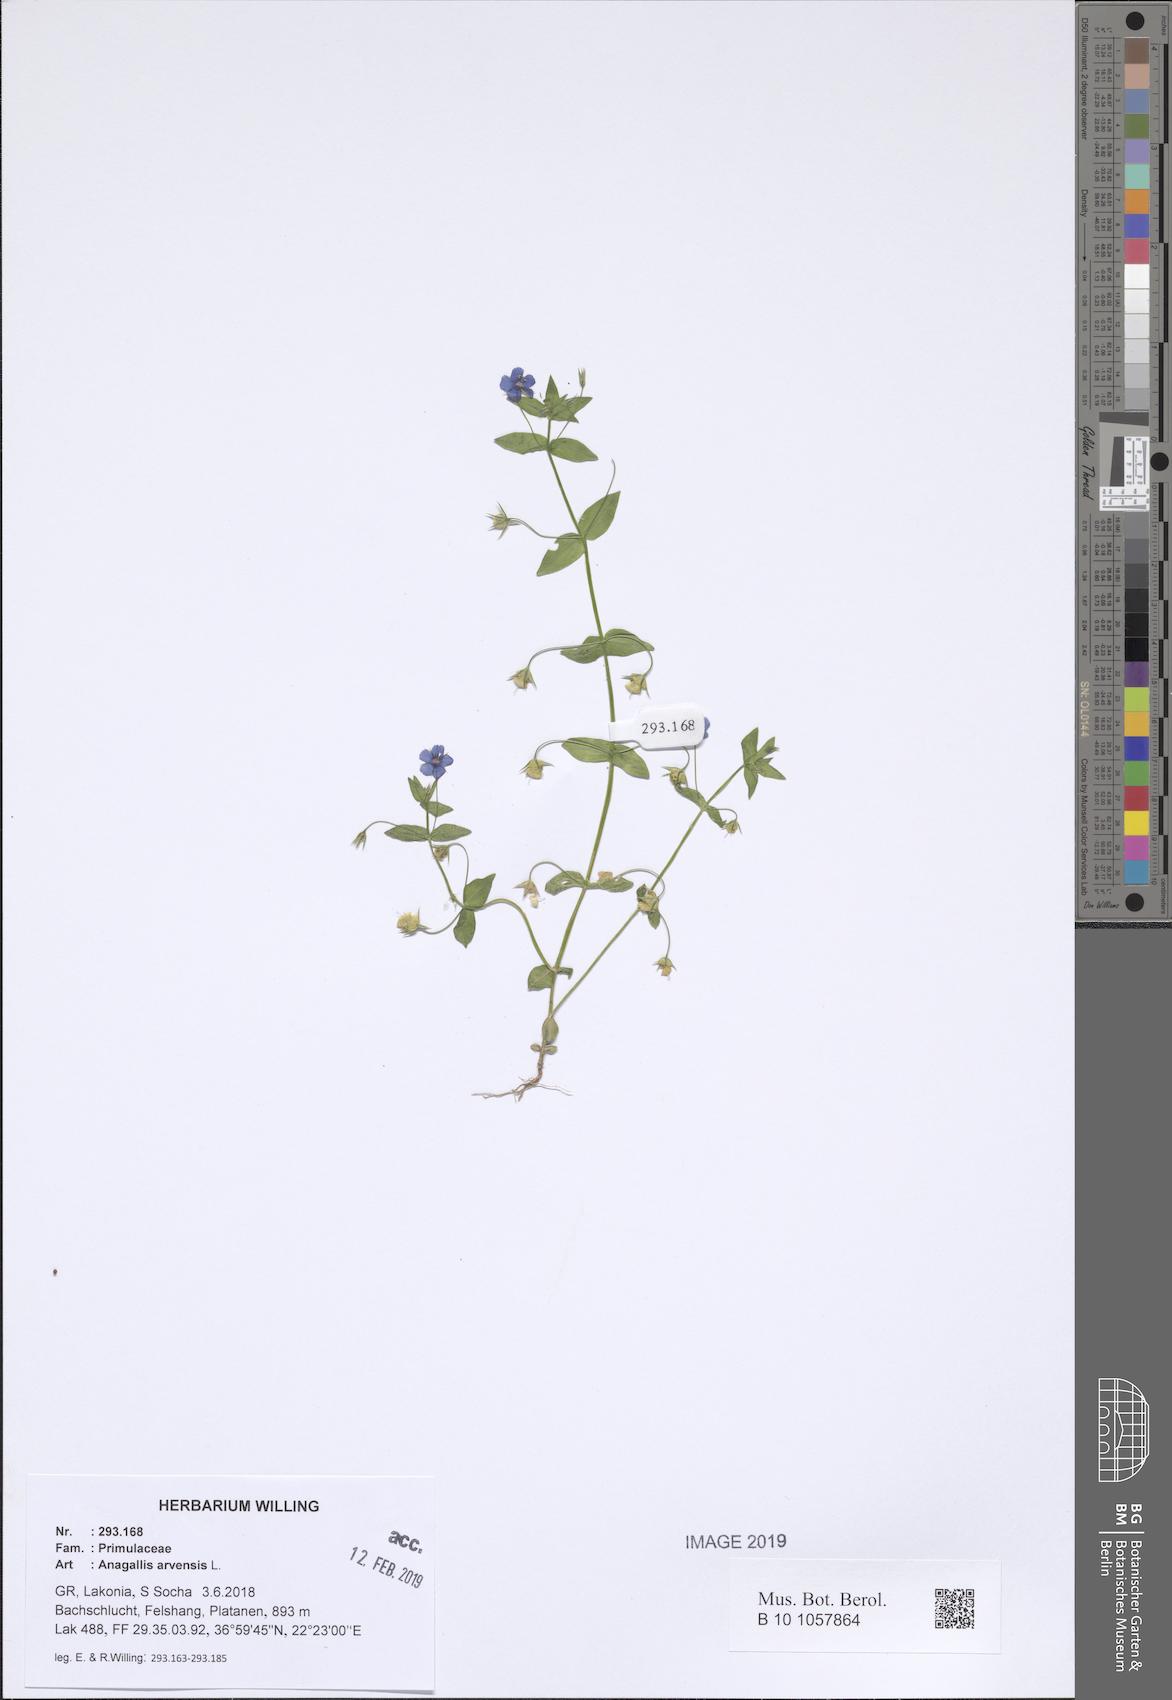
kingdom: Plantae
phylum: Tracheophyta
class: Magnoliopsida
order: Ericales
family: Primulaceae
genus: Lysimachia
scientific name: Lysimachia arvensis
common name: Scarlet pimpernel
